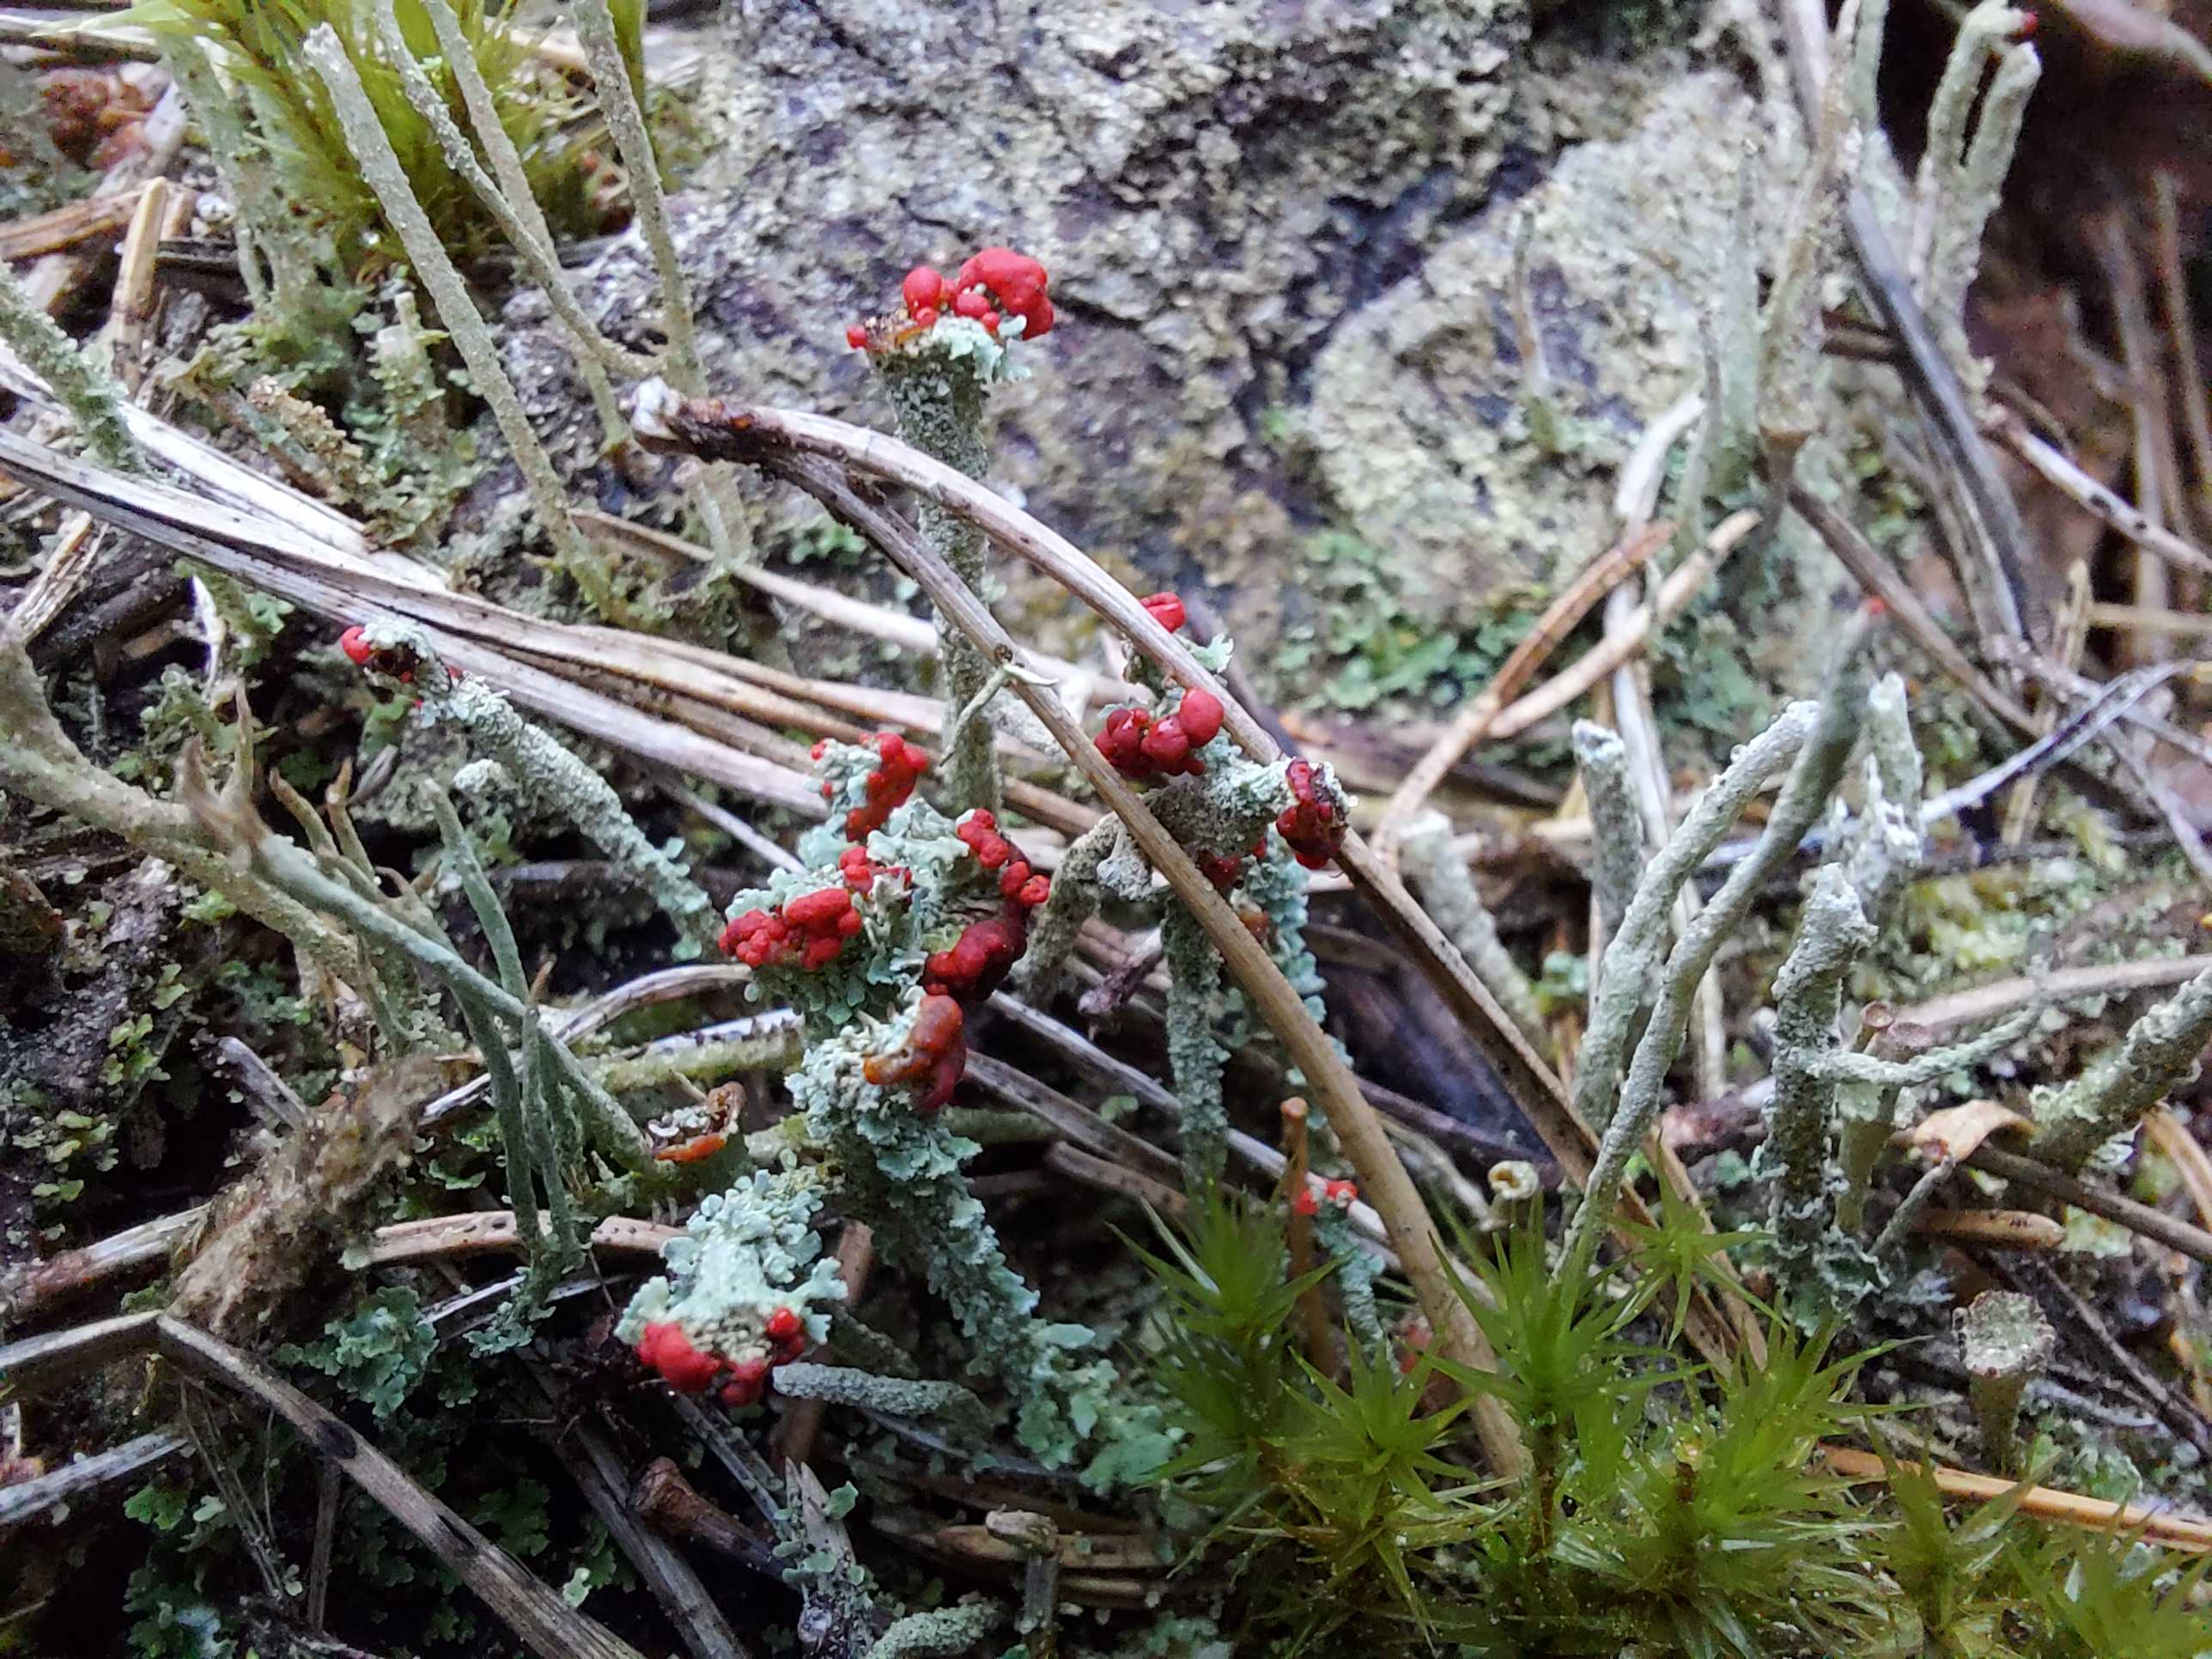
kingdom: Fungi
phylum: Ascomycota
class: Lecanoromycetes
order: Lecanorales
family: Cladoniaceae
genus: Cladonia
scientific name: Cladonia floerkeana
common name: lakrød bægerlav
